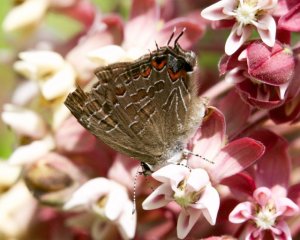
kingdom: Animalia
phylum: Arthropoda
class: Insecta
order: Lepidoptera
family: Lycaenidae
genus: Satyrium
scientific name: Satyrium liparops
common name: Striped Hairstreak
